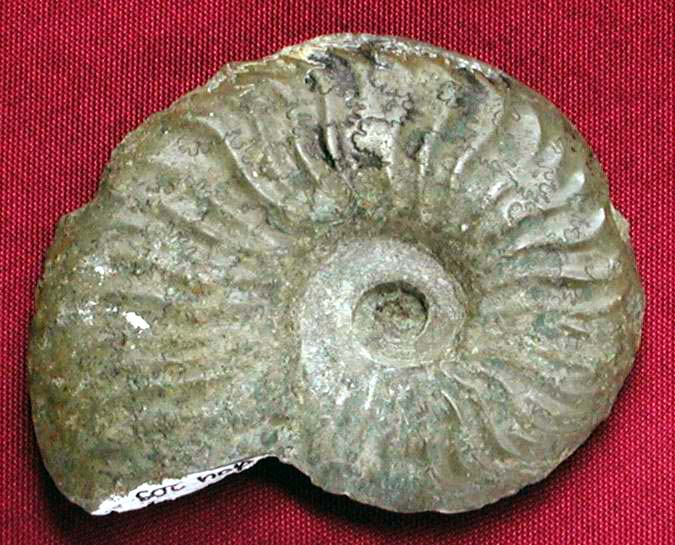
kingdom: Animalia
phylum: Mollusca
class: Cephalopoda
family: Hildoceratidae
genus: Pleydellia
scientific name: Pleydellia
